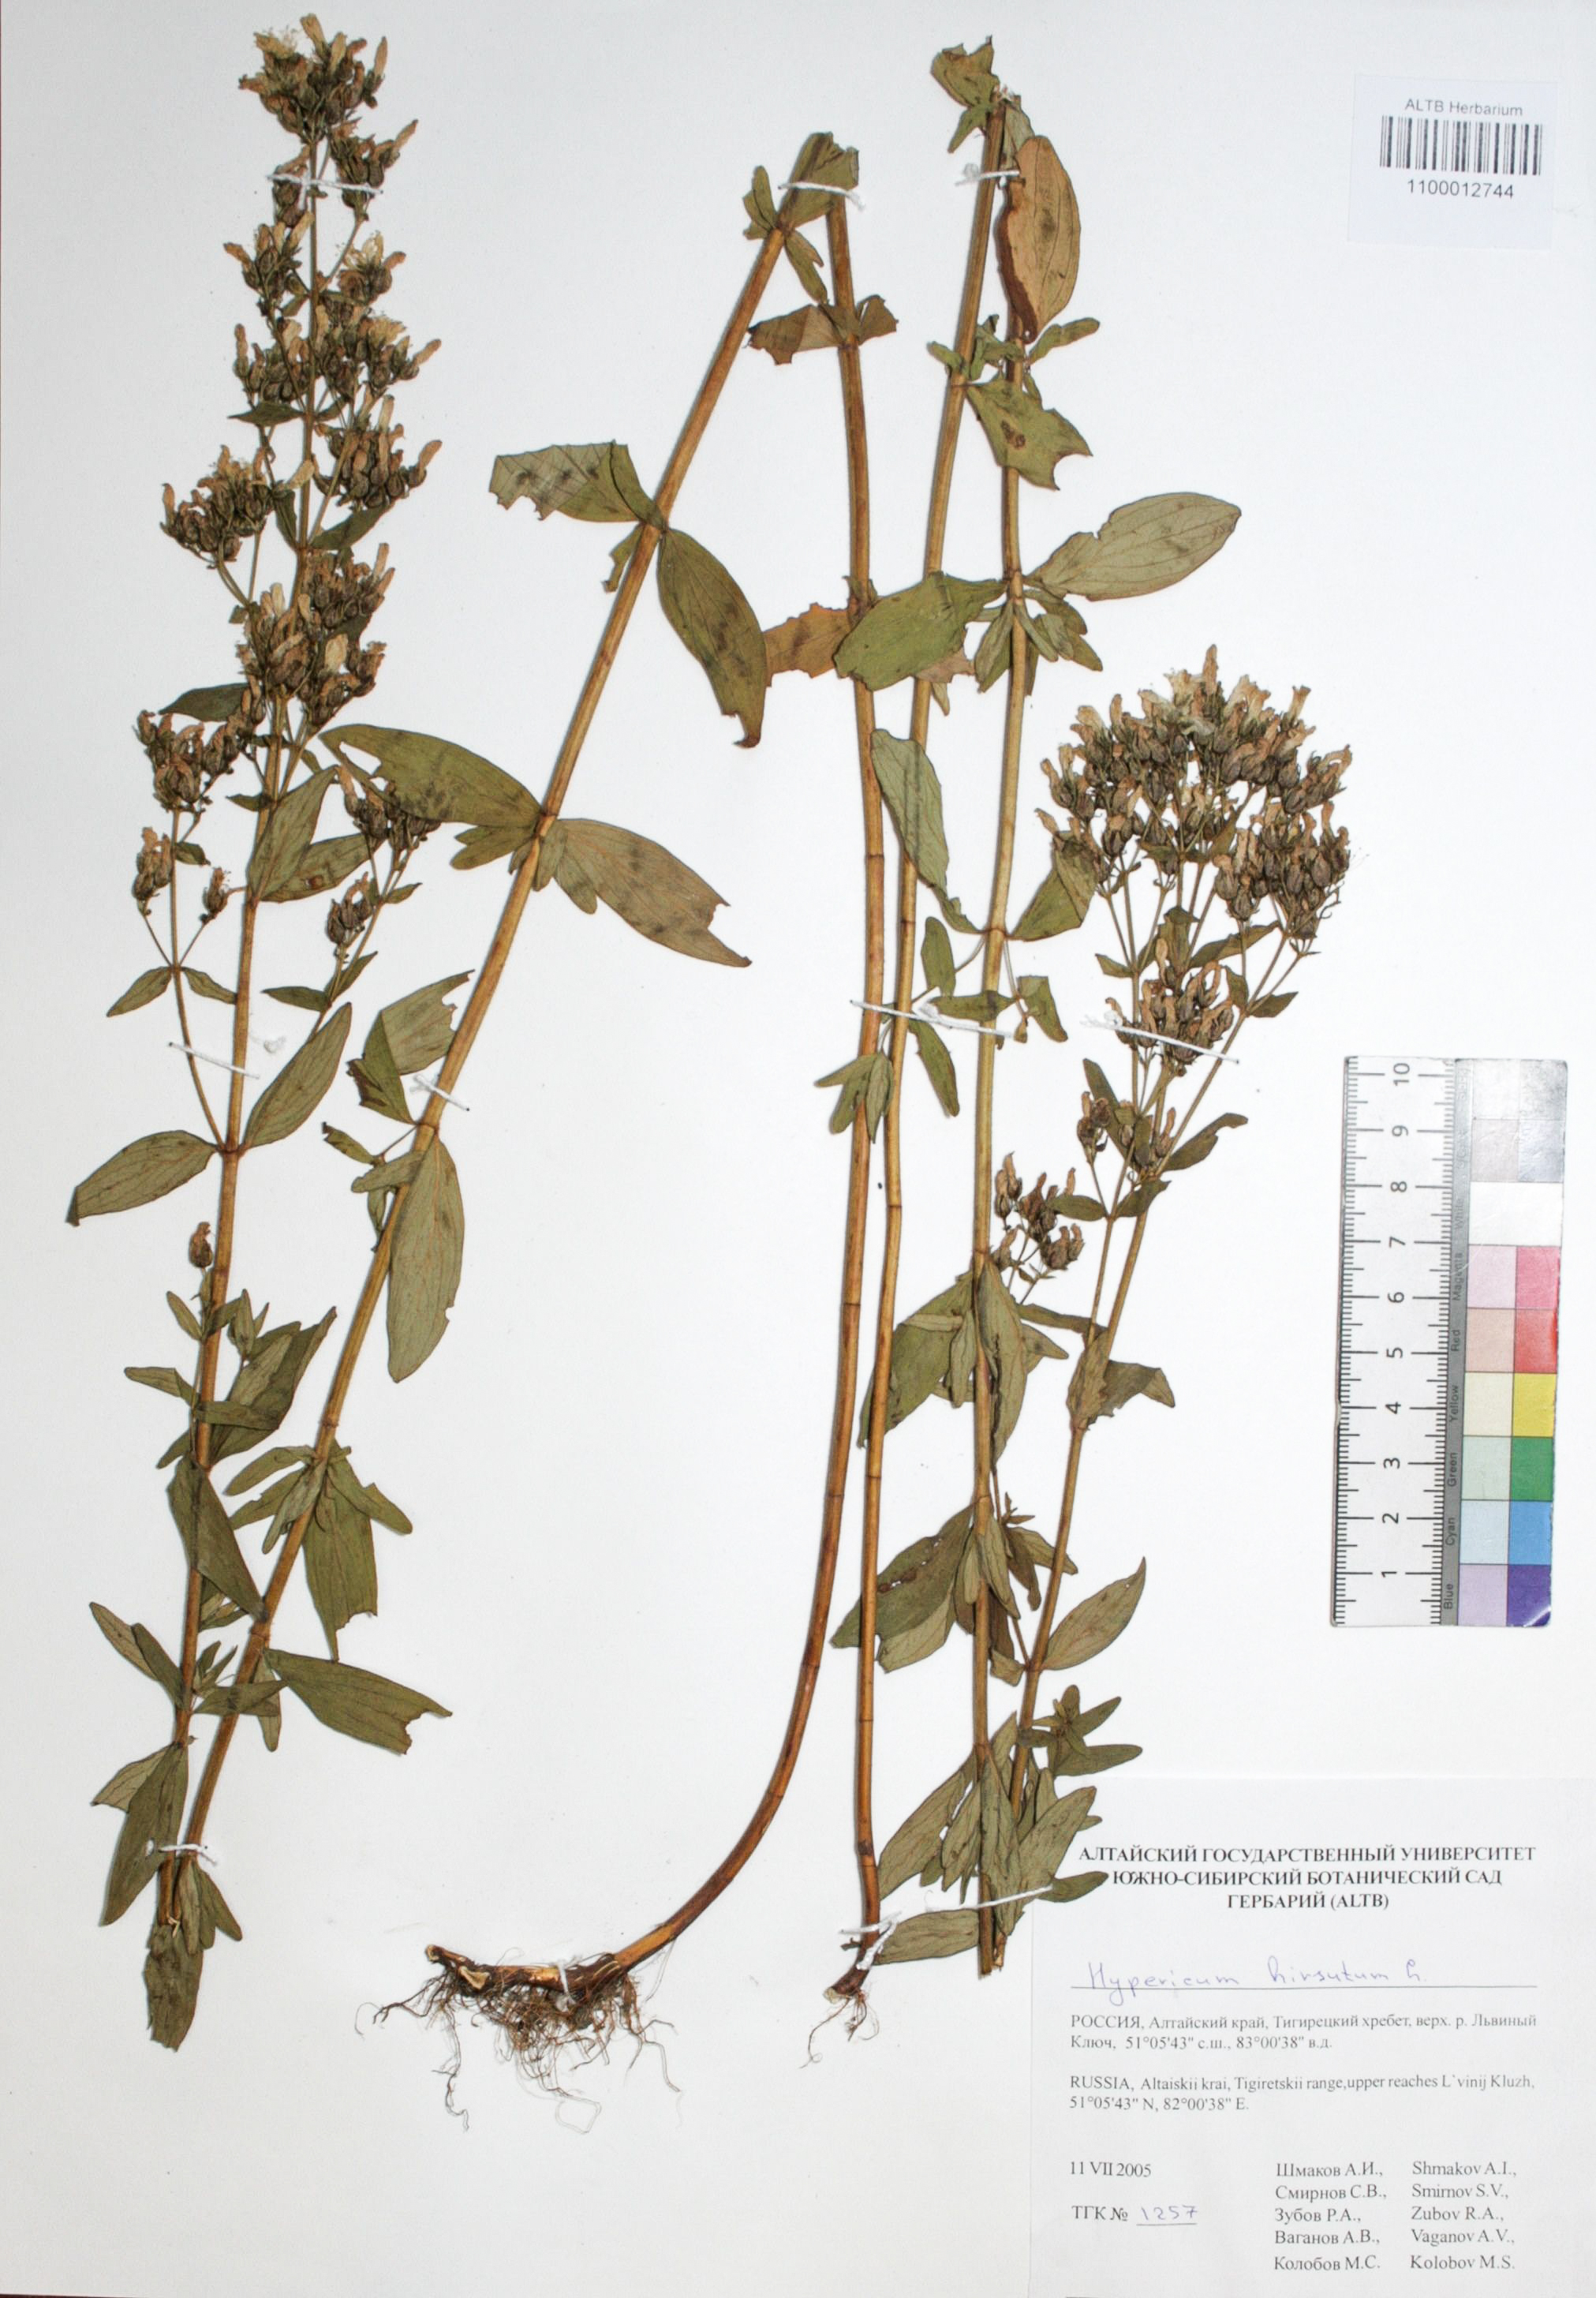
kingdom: Plantae
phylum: Tracheophyta
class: Magnoliopsida
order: Malpighiales
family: Hypericaceae
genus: Hypericum
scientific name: Hypericum hirsutum
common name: Hairy st. john's-wort
